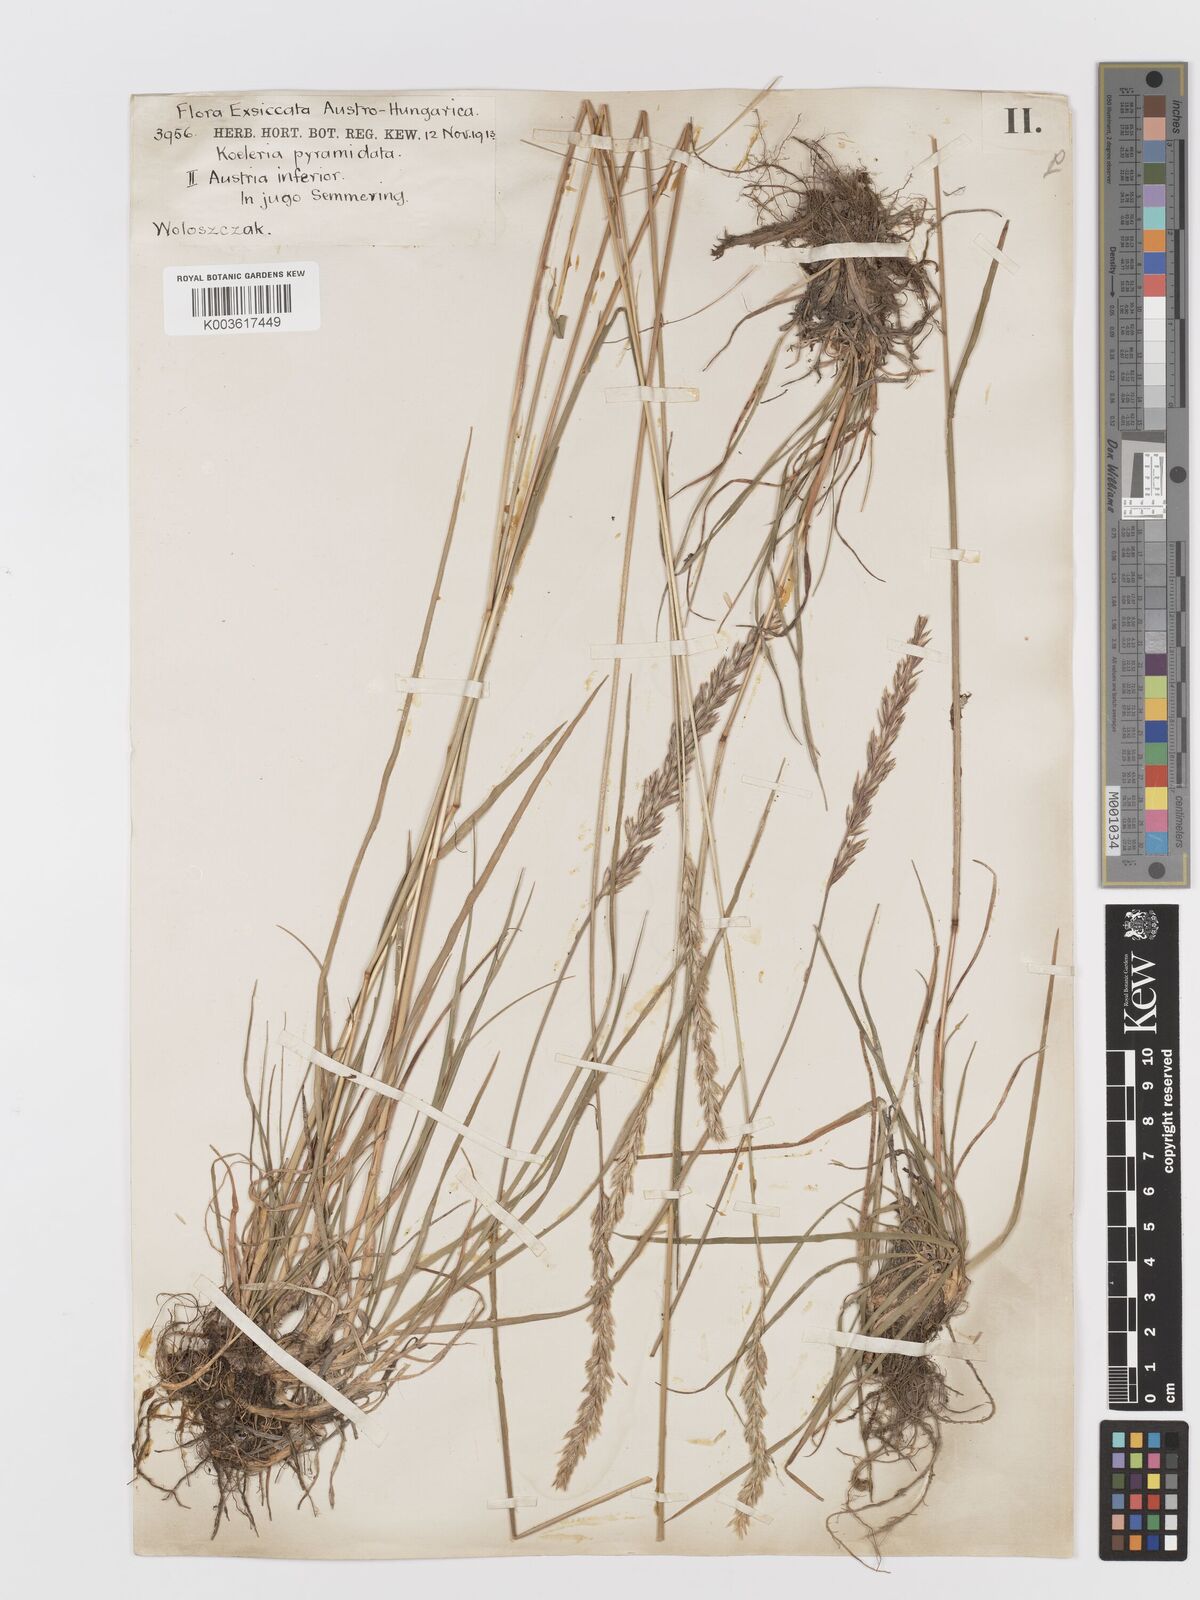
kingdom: Plantae
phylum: Tracheophyta
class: Liliopsida
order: Poales
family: Poaceae
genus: Koeleria
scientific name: Koeleria pyramidata
